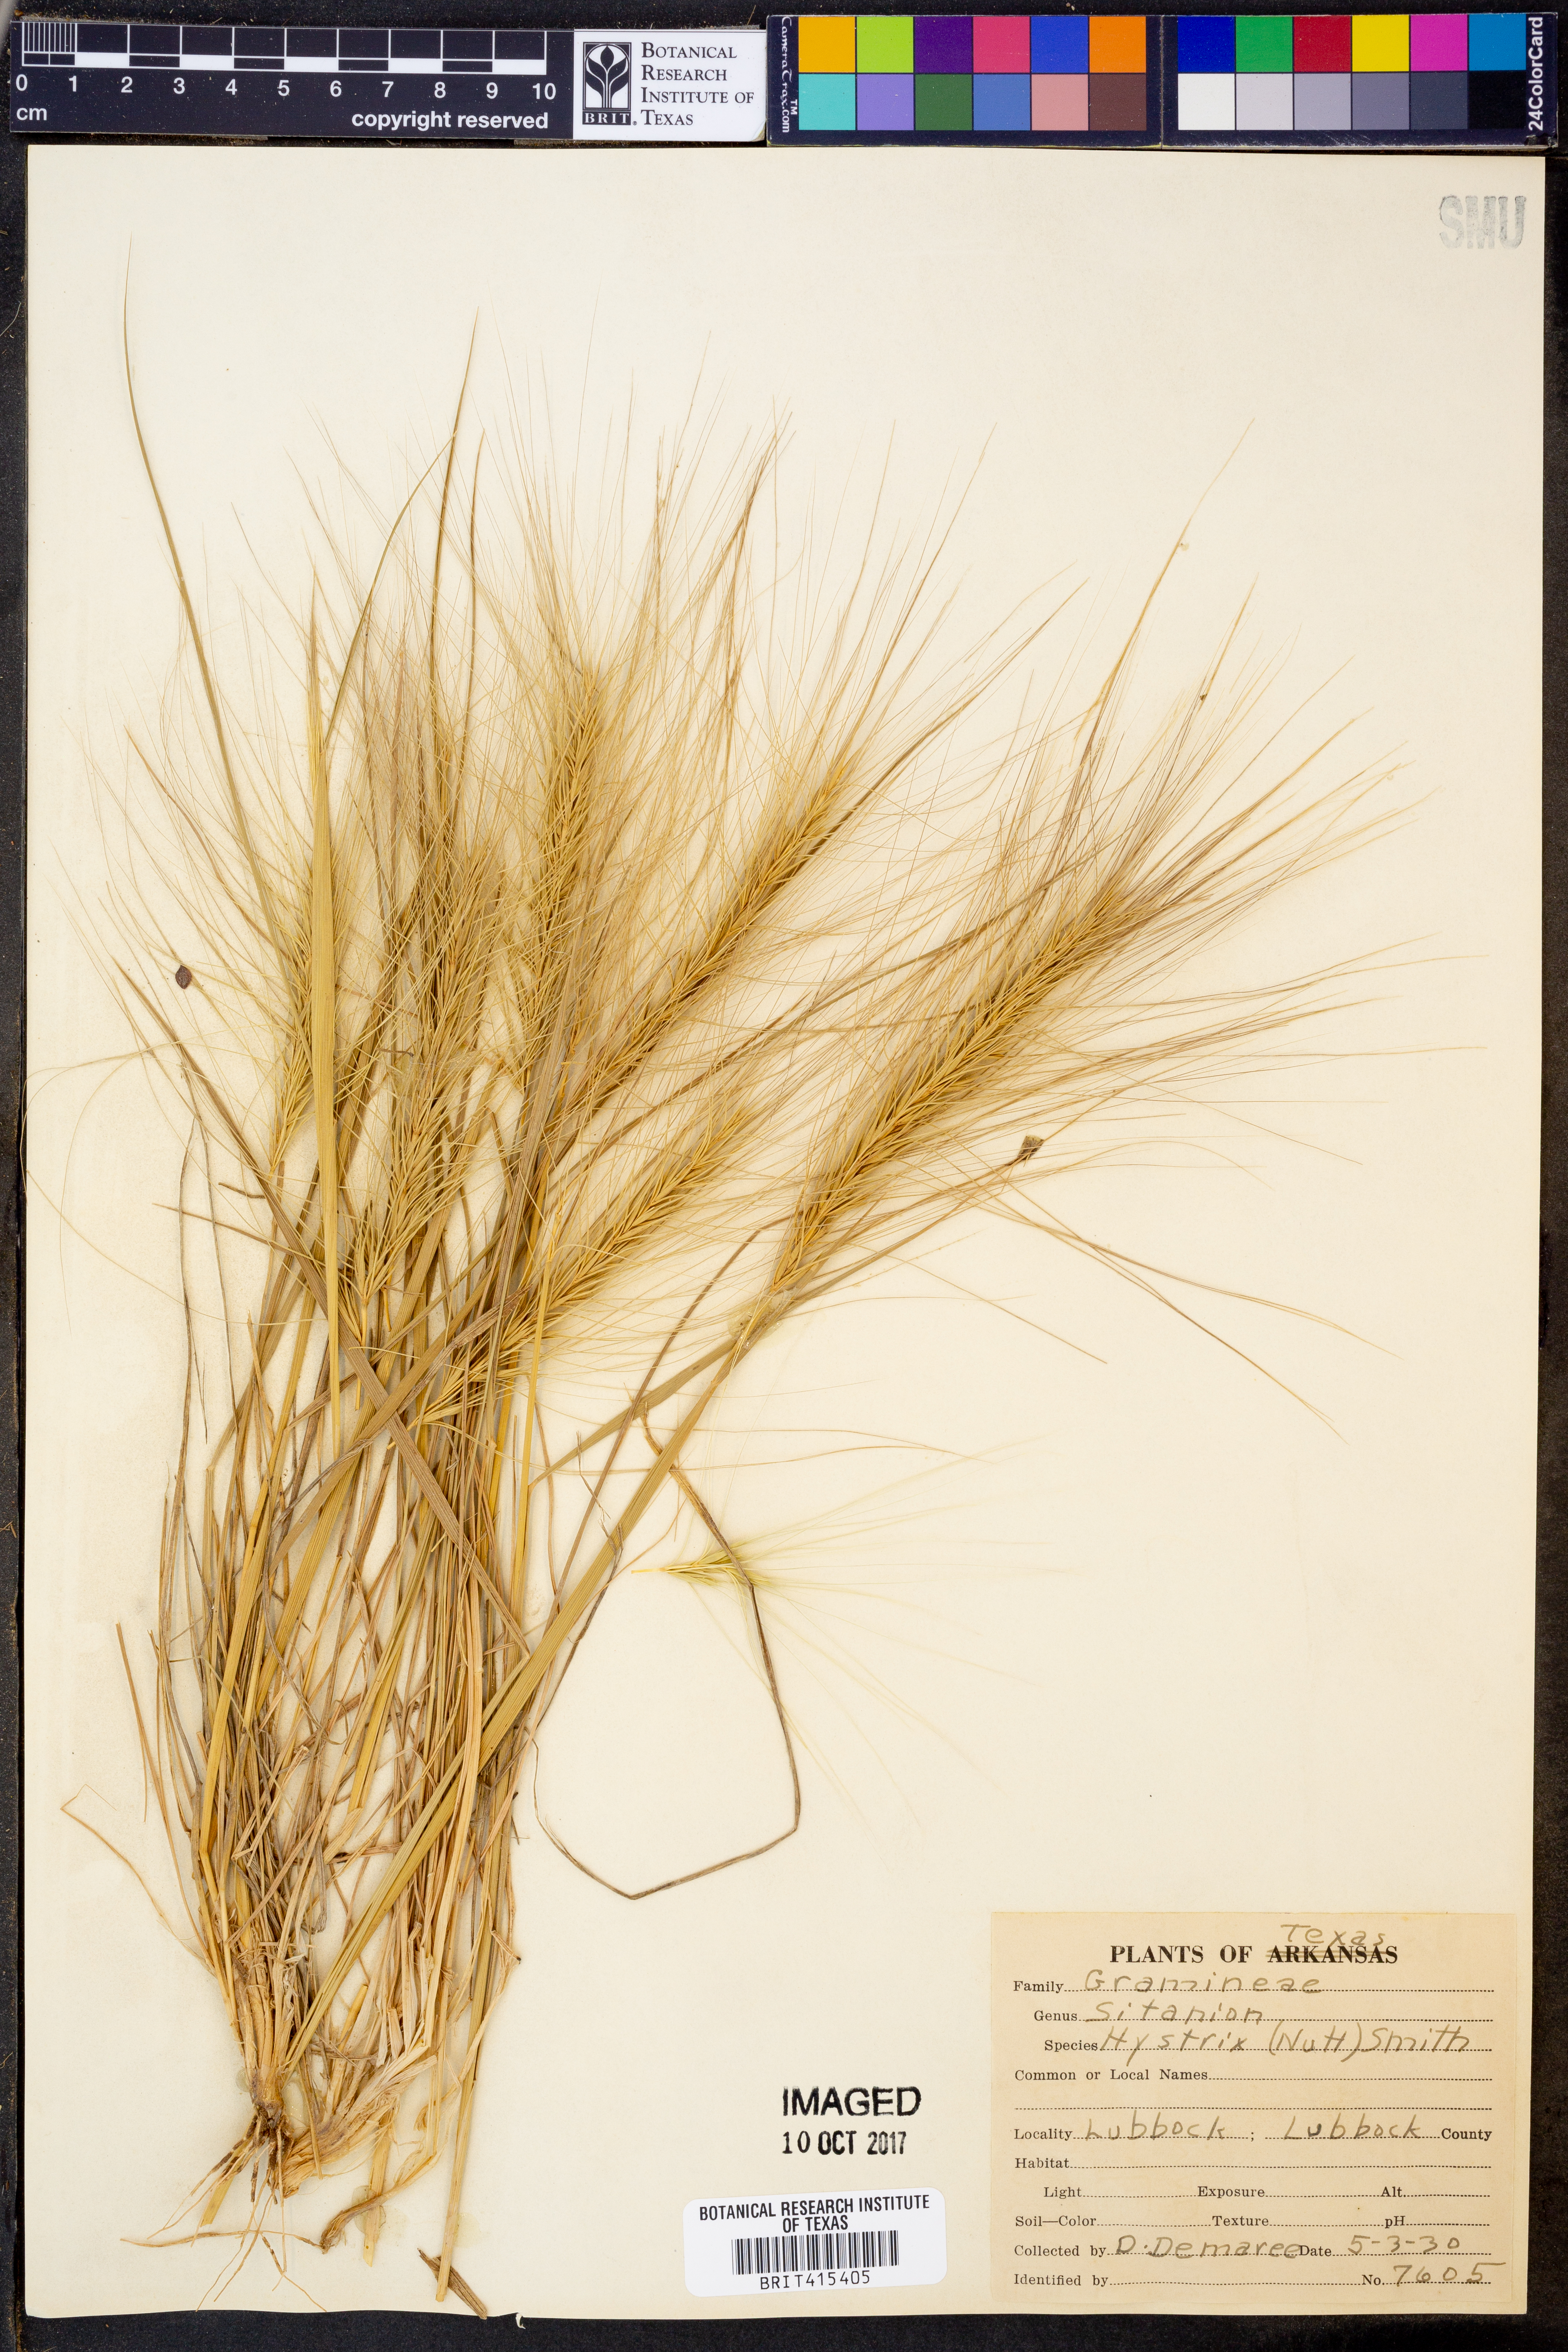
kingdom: Plantae
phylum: Tracheophyta
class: Liliopsida
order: Poales
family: Poaceae
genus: Elymus
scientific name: Elymus elymoides
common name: Bottlebrush squirreltail
